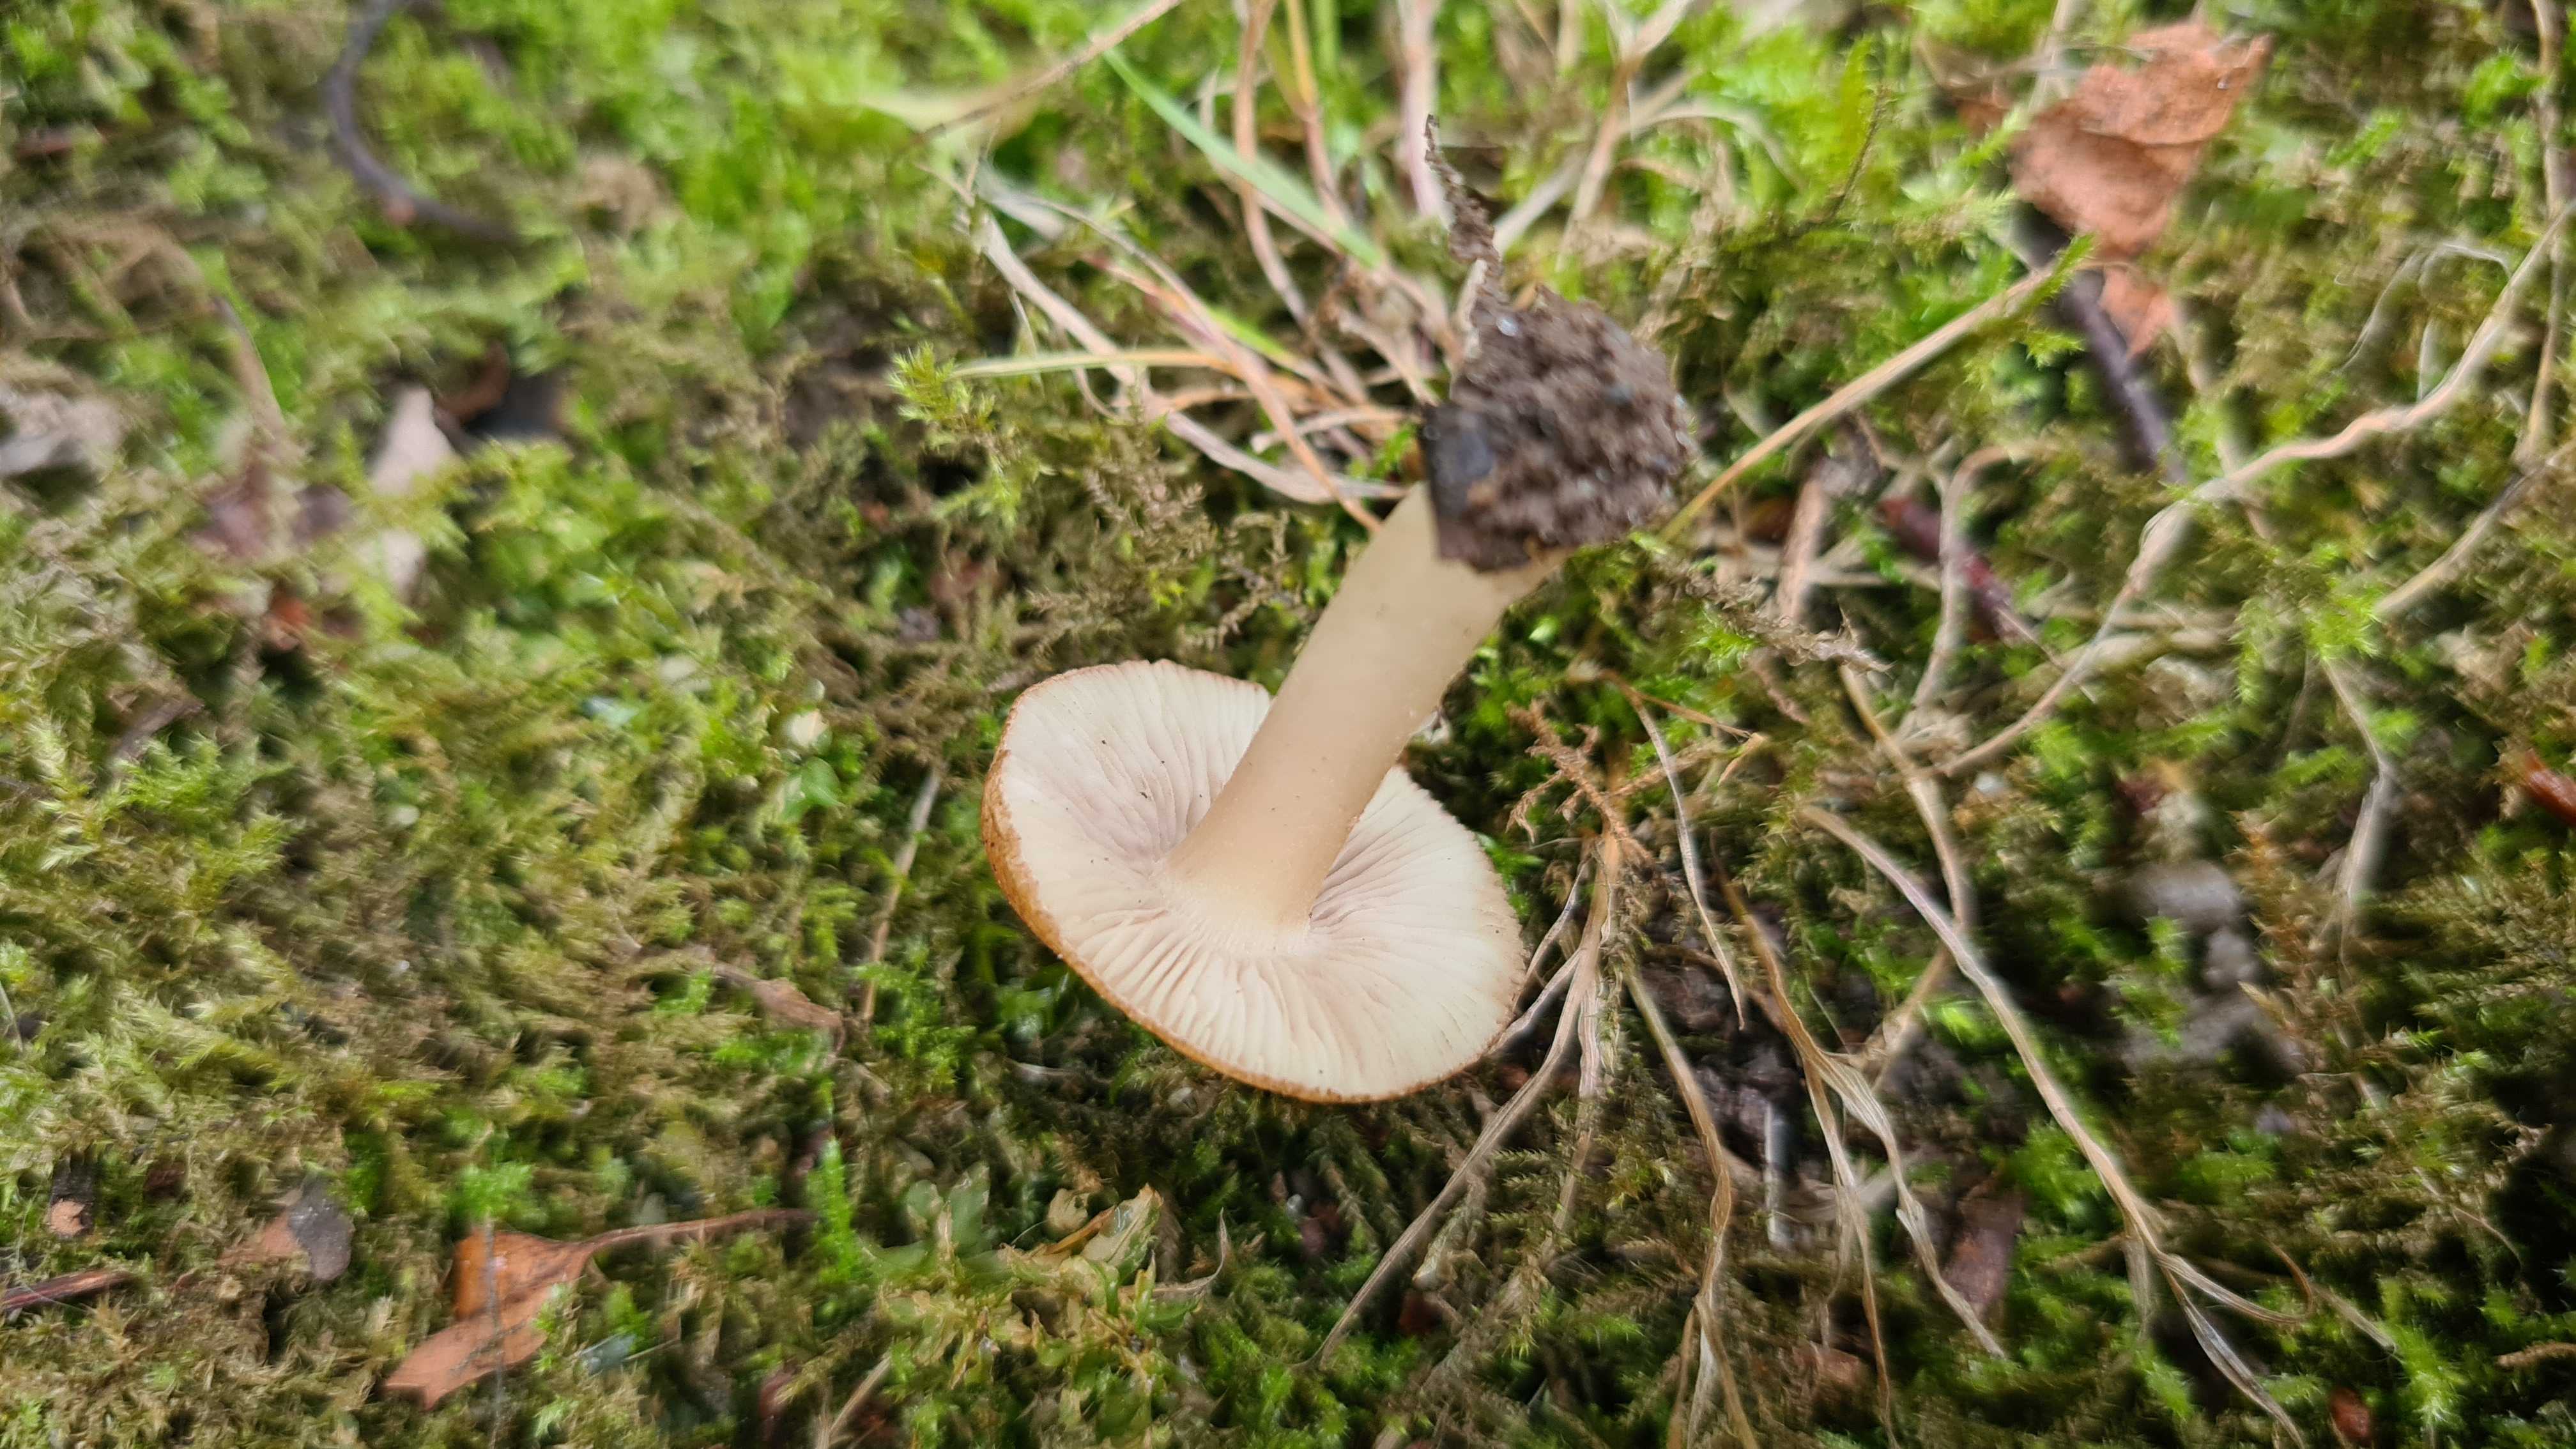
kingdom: Fungi
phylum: Basidiomycota
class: Agaricomycetes
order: Agaricales
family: Inocybaceae
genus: Inocybe
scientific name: Inocybe langei
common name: Langes trævlhat
